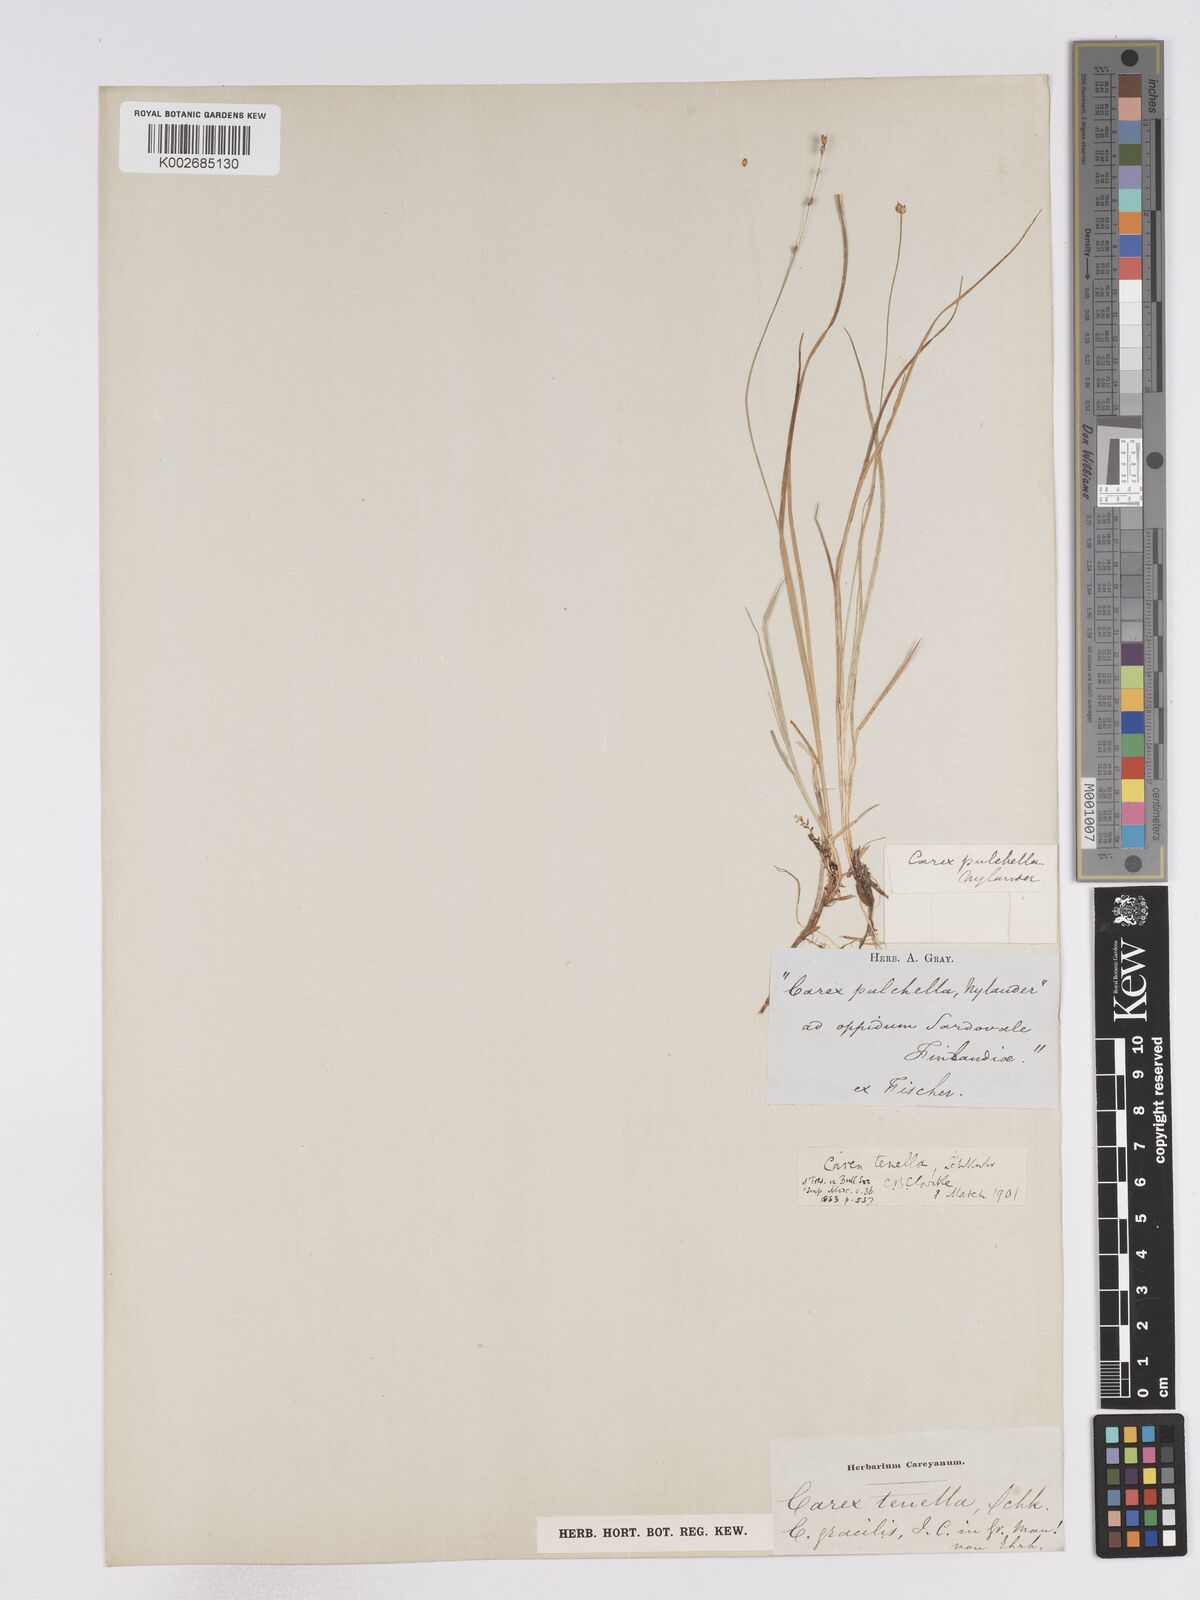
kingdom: Plantae
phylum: Tracheophyta
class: Liliopsida
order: Poales
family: Cyperaceae
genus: Carex
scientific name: Carex disperma
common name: Short-leaved sedge
